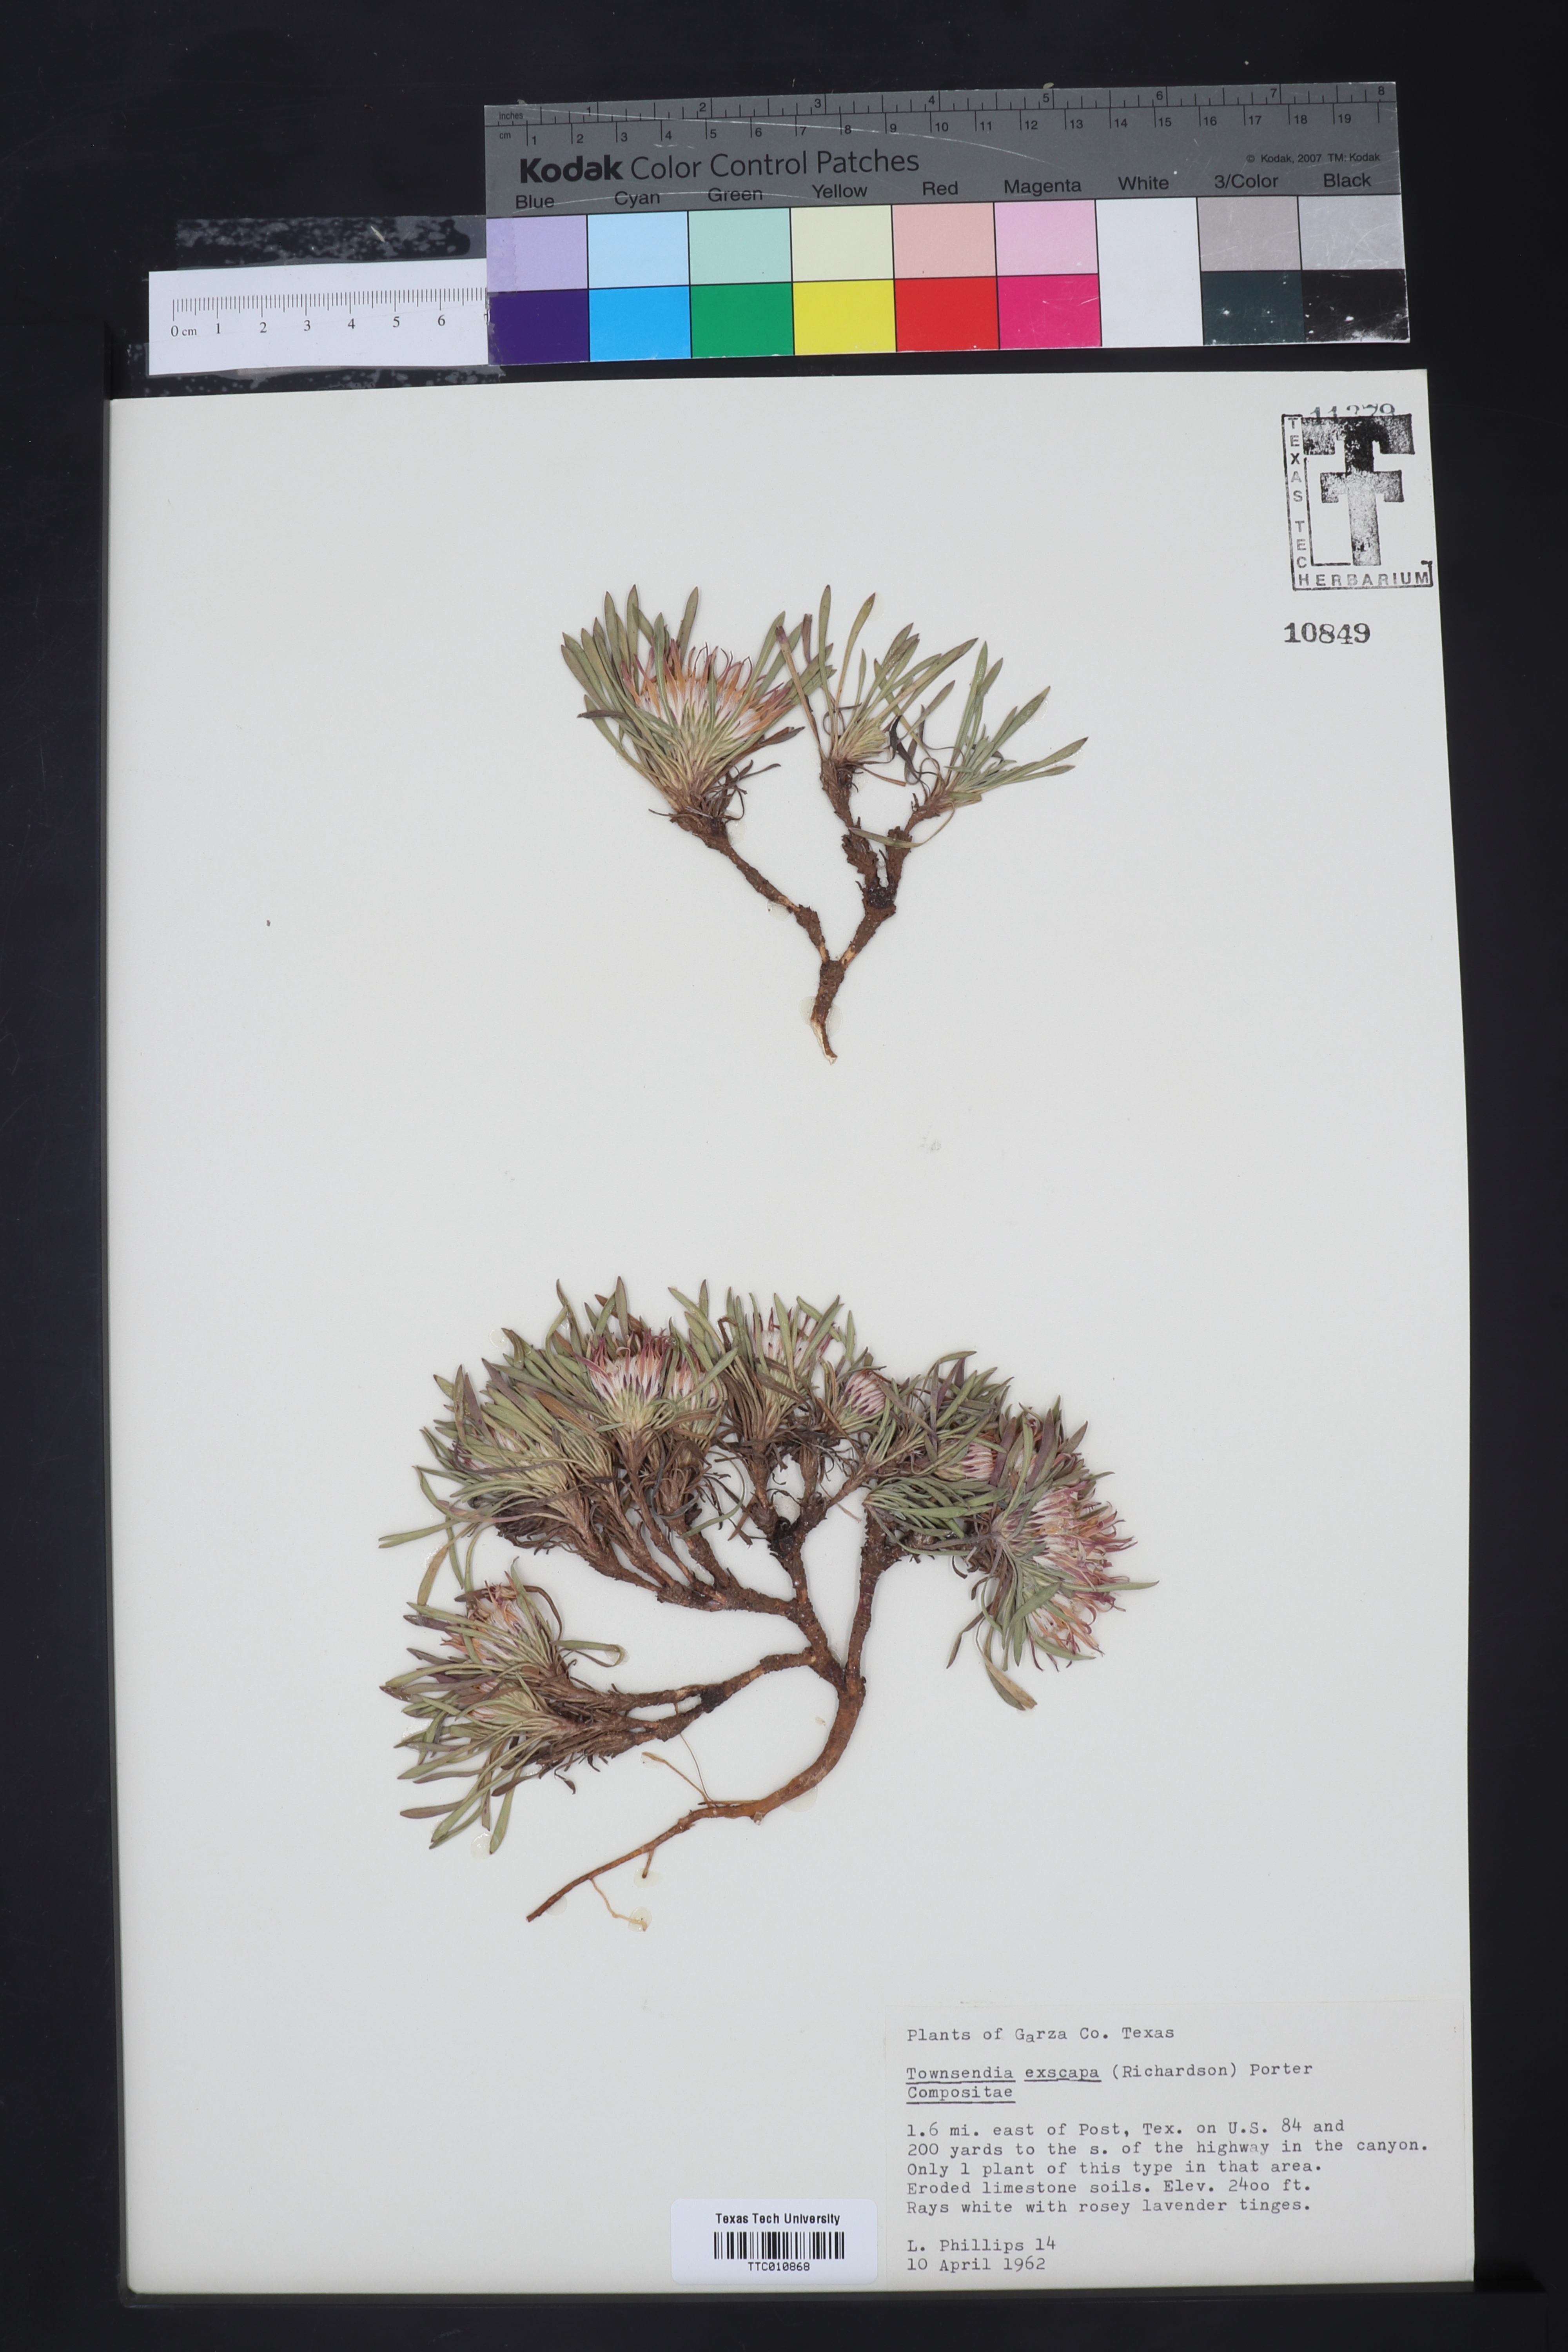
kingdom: Plantae
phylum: Tracheophyta
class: Magnoliopsida
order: Asterales
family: Asteraceae
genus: Townsendia
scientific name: Townsendia exscapa
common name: Dwarf townsendia
